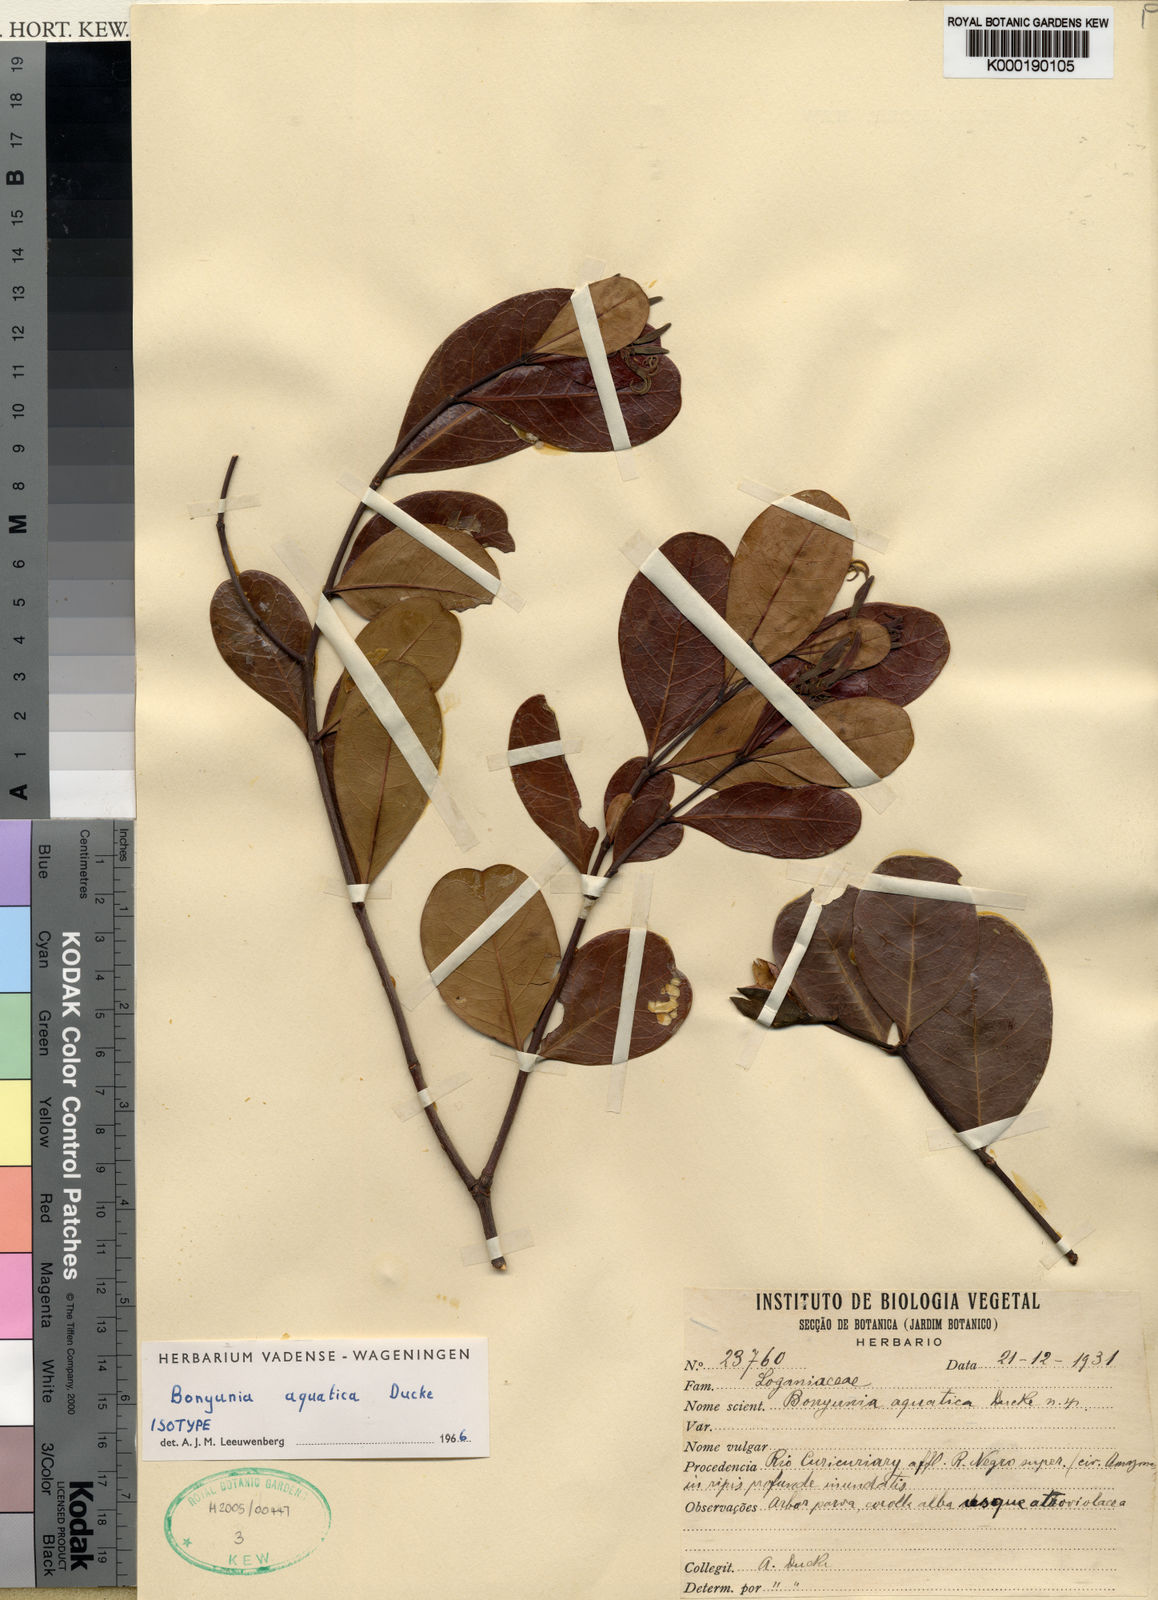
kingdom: Plantae
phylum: Tracheophyta
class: Magnoliopsida
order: Gentianales
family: Loganiaceae
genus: Bonyunia
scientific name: Bonyunia aquatica
